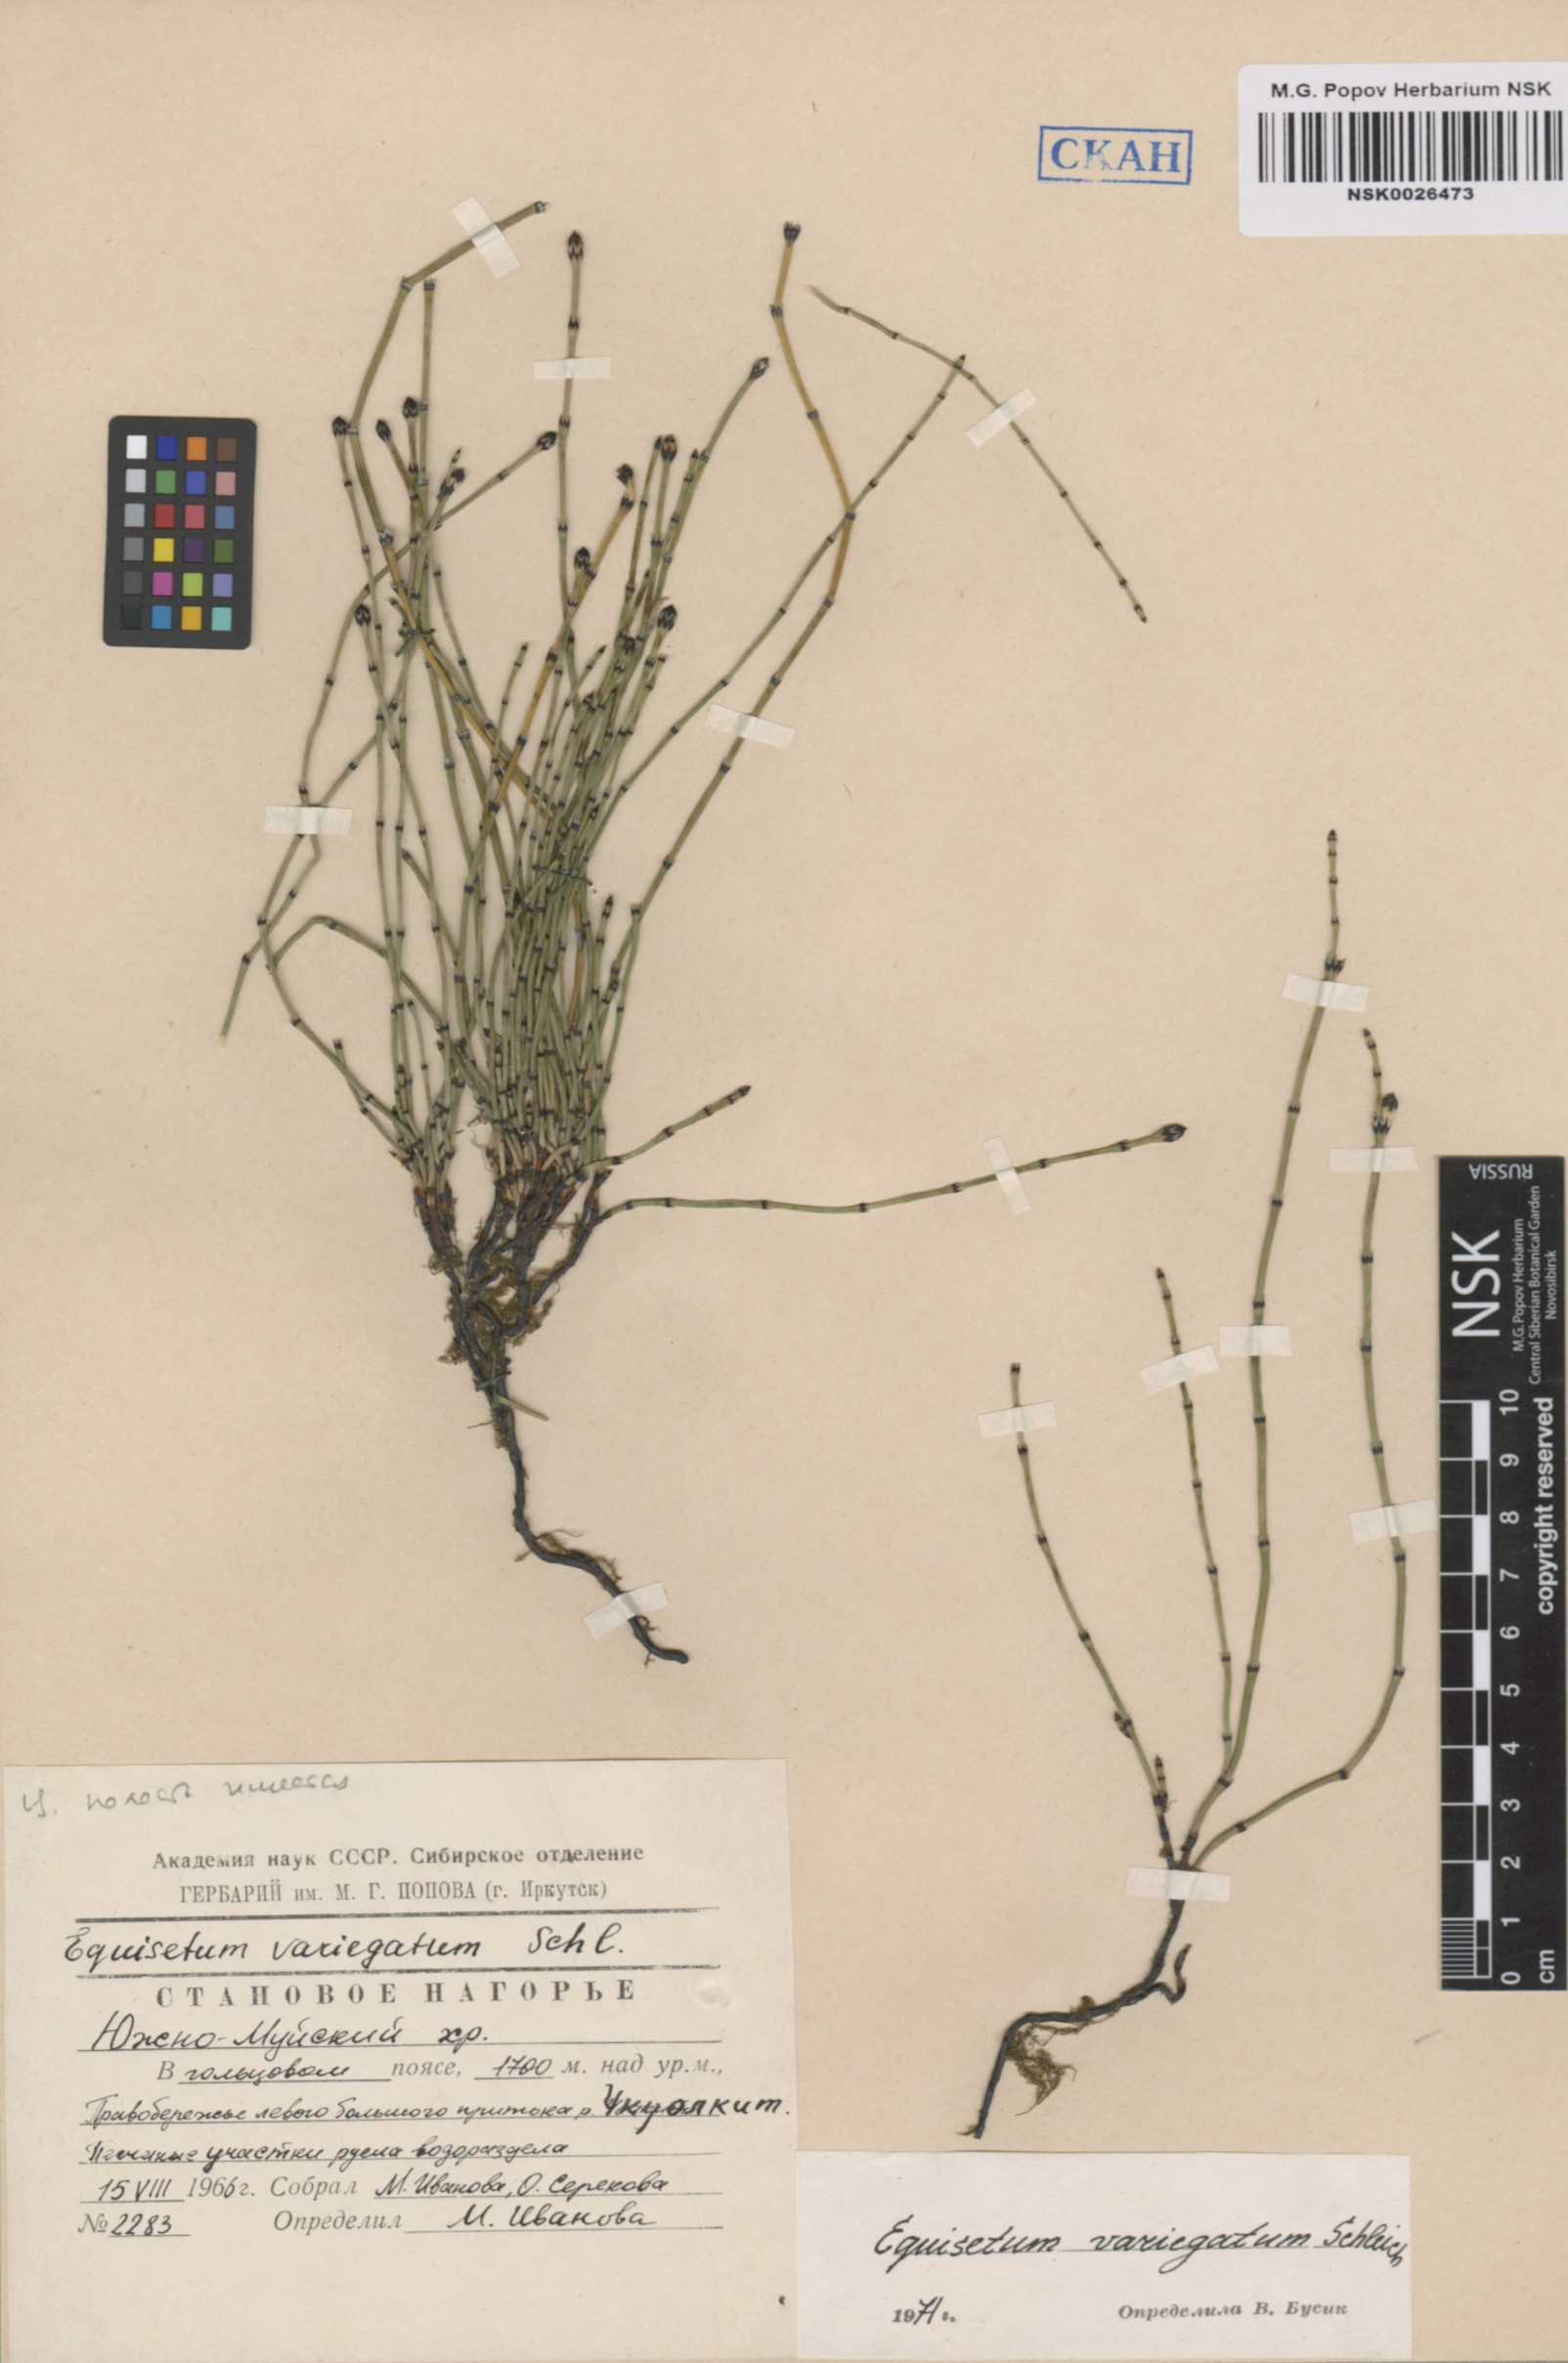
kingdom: Plantae
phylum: Tracheophyta
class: Polypodiopsida
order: Equisetales
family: Equisetaceae
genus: Equisetum
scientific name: Equisetum variegatum
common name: Variegated horsetail
